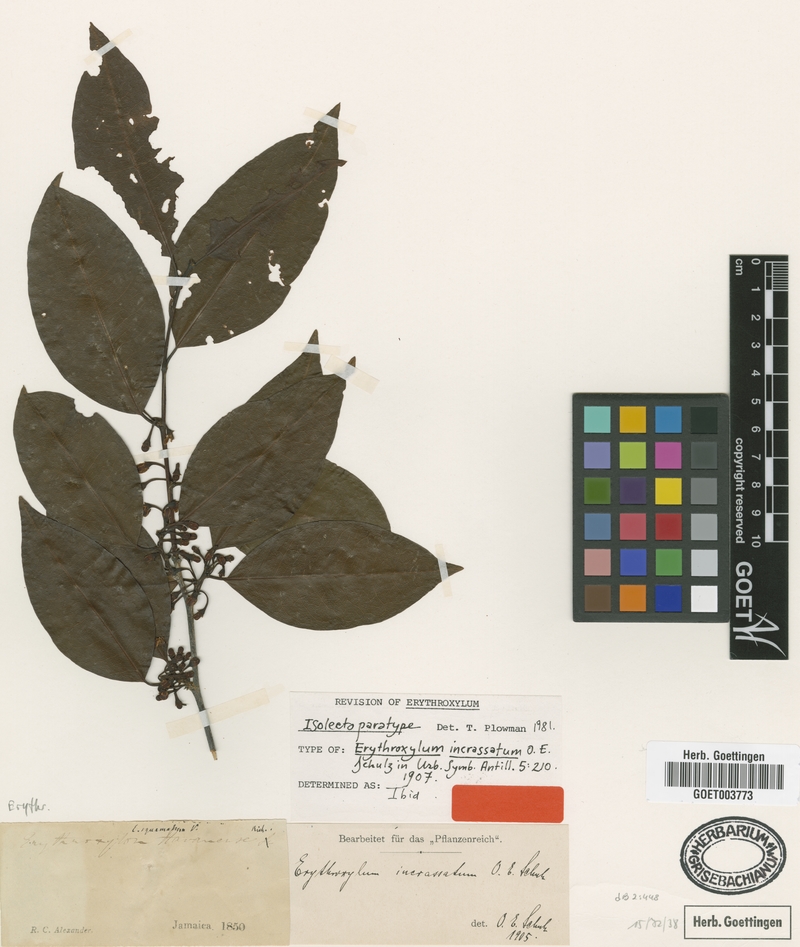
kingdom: Plantae
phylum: Tracheophyta
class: Magnoliopsida
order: Malpighiales
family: Erythroxylaceae
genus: Erythroxylum
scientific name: Erythroxylum incrassatum
